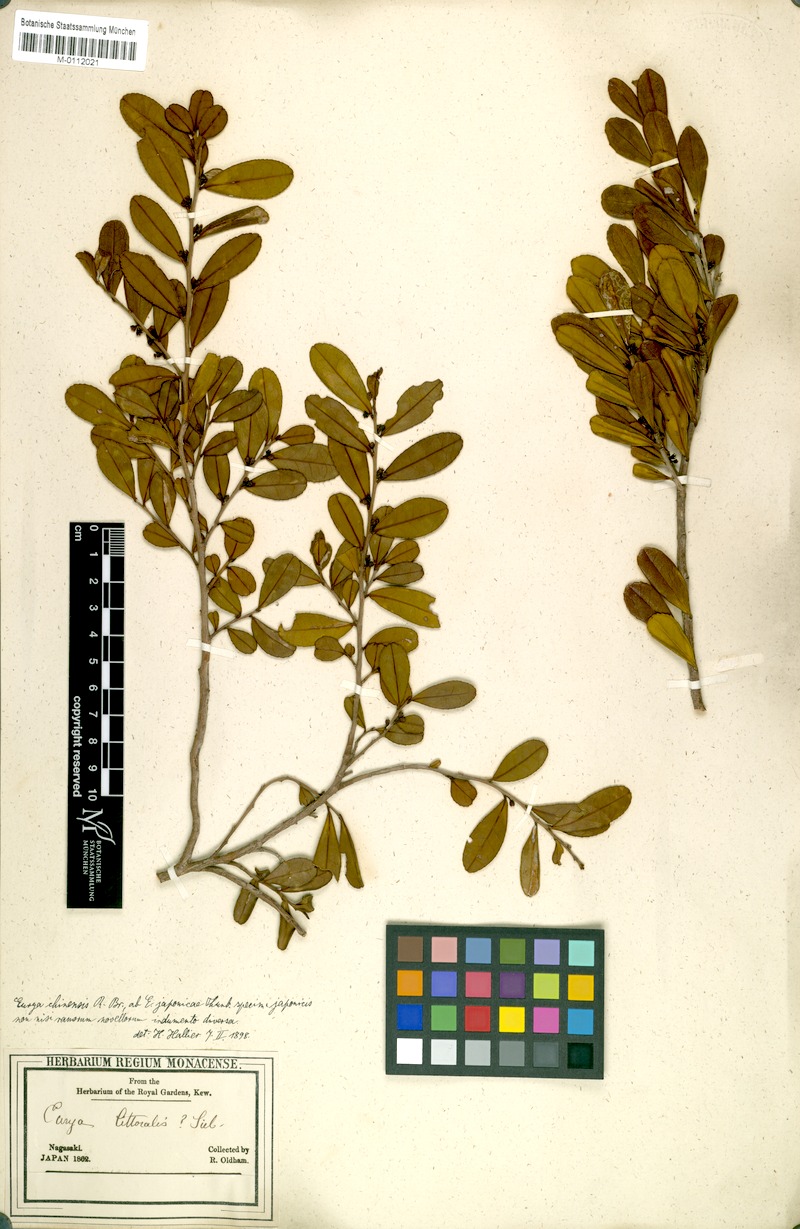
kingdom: Plantae
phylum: Tracheophyta
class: Magnoliopsida
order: Ericales
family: Pentaphylacaceae
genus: Eurya
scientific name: Eurya emarginata
